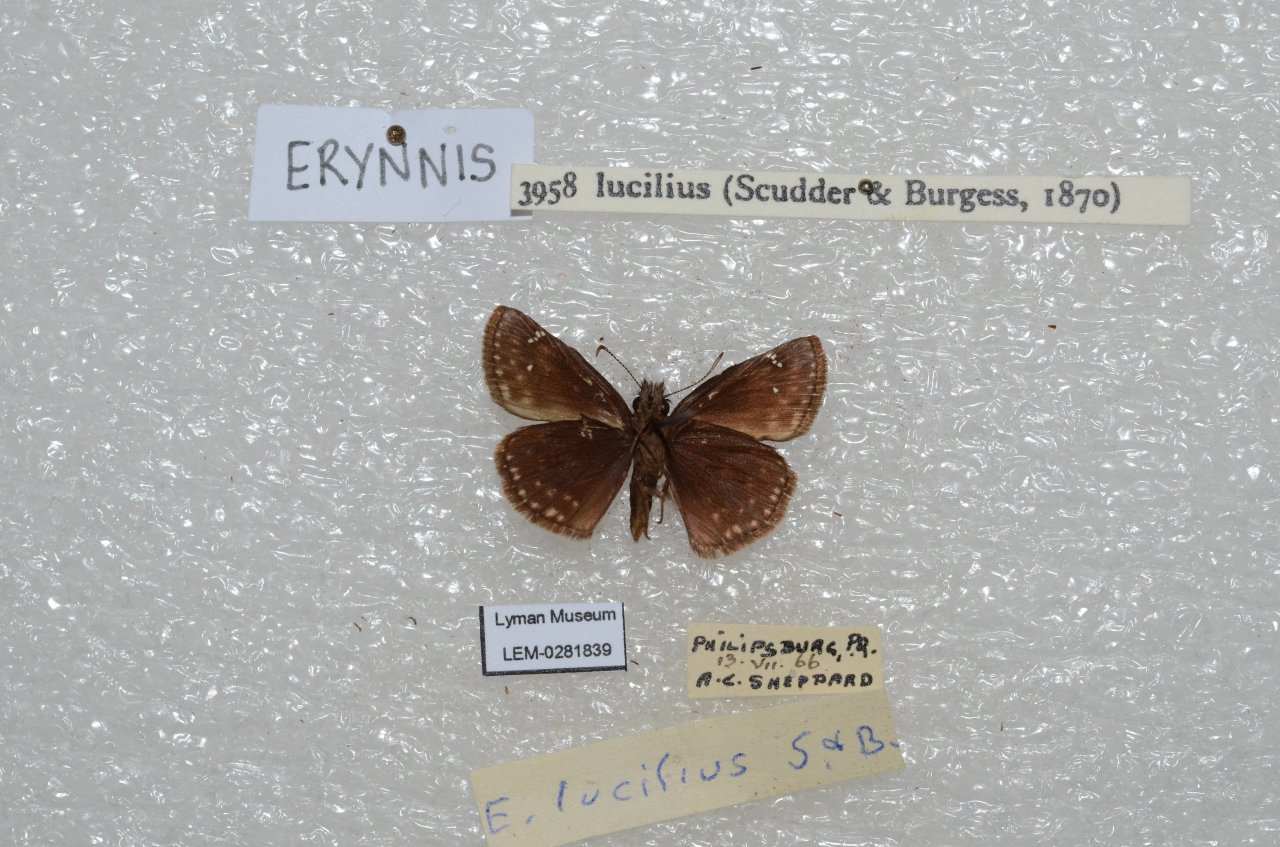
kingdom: Animalia
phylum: Arthropoda
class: Insecta
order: Lepidoptera
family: Hesperiidae
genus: Gesta
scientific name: Gesta
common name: Columbine Duskywing
